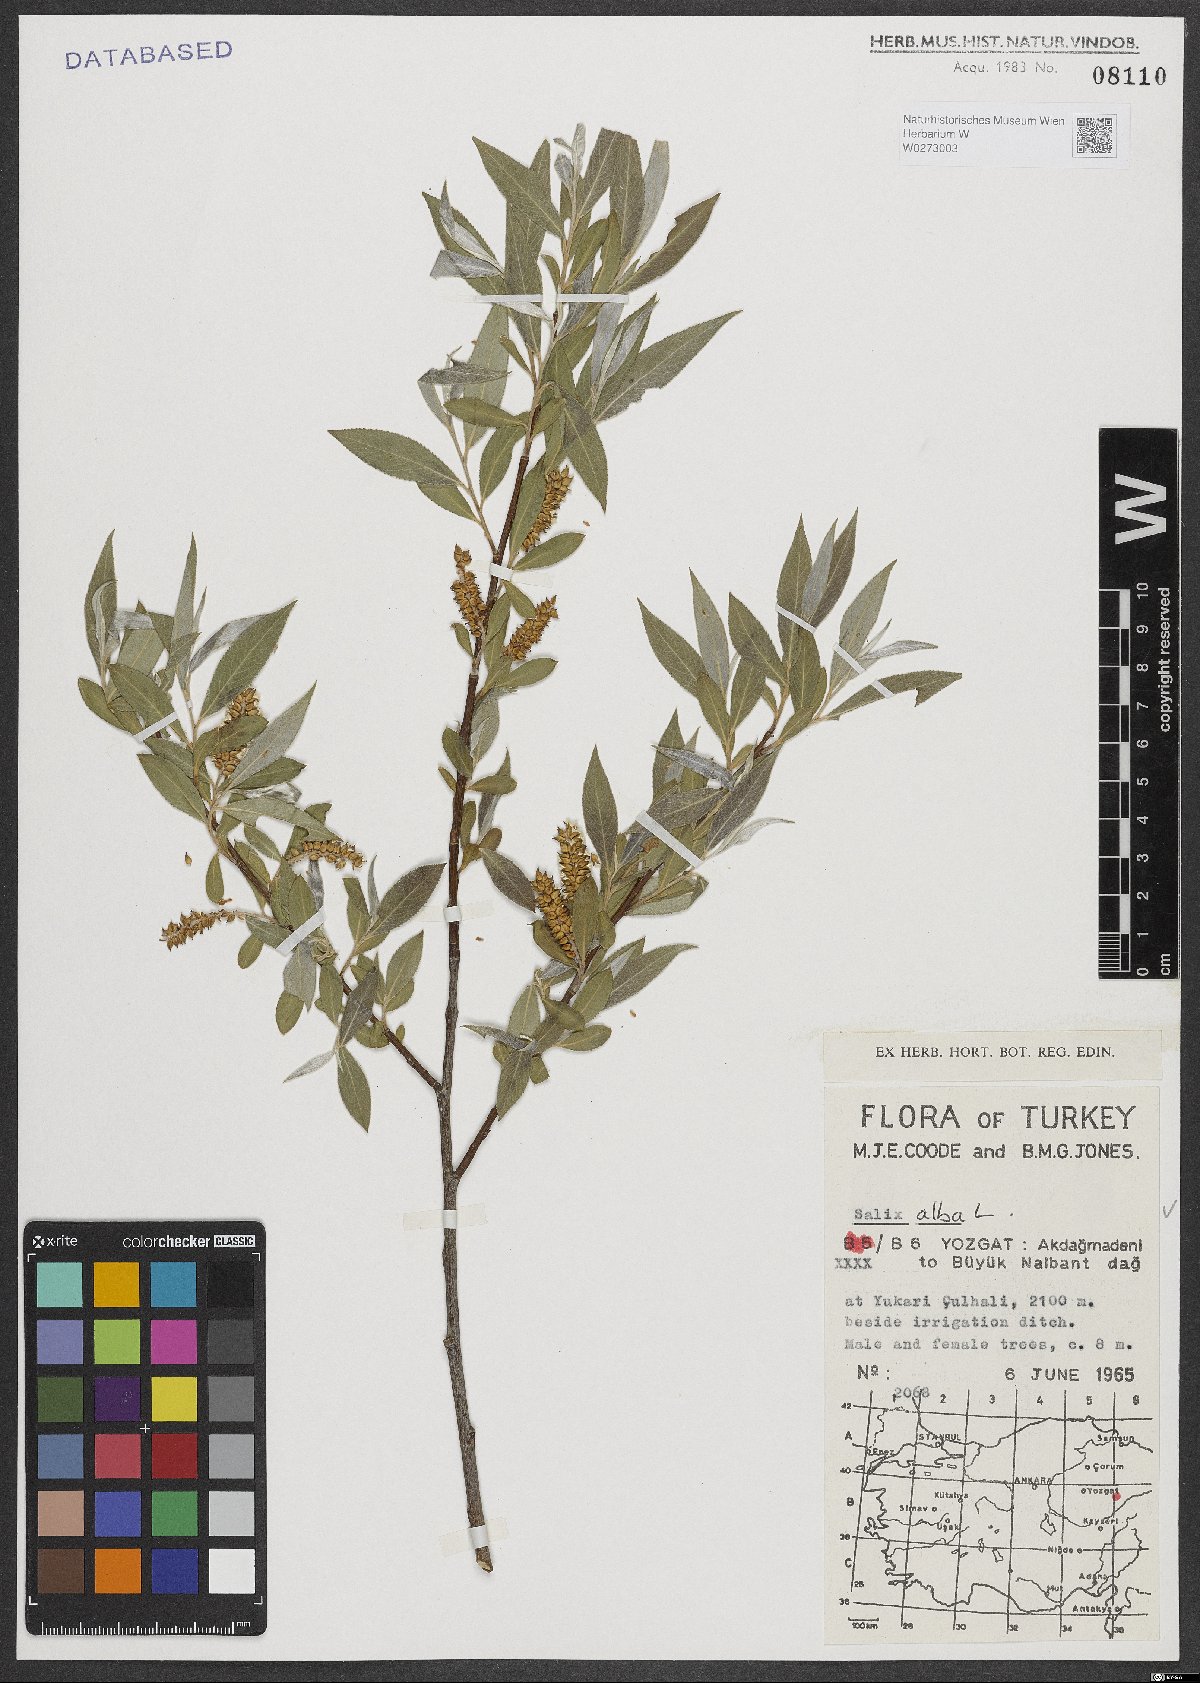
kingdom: Plantae
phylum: Tracheophyta
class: Magnoliopsida
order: Malpighiales
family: Salicaceae
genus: Salix
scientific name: Salix alba
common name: White willow
